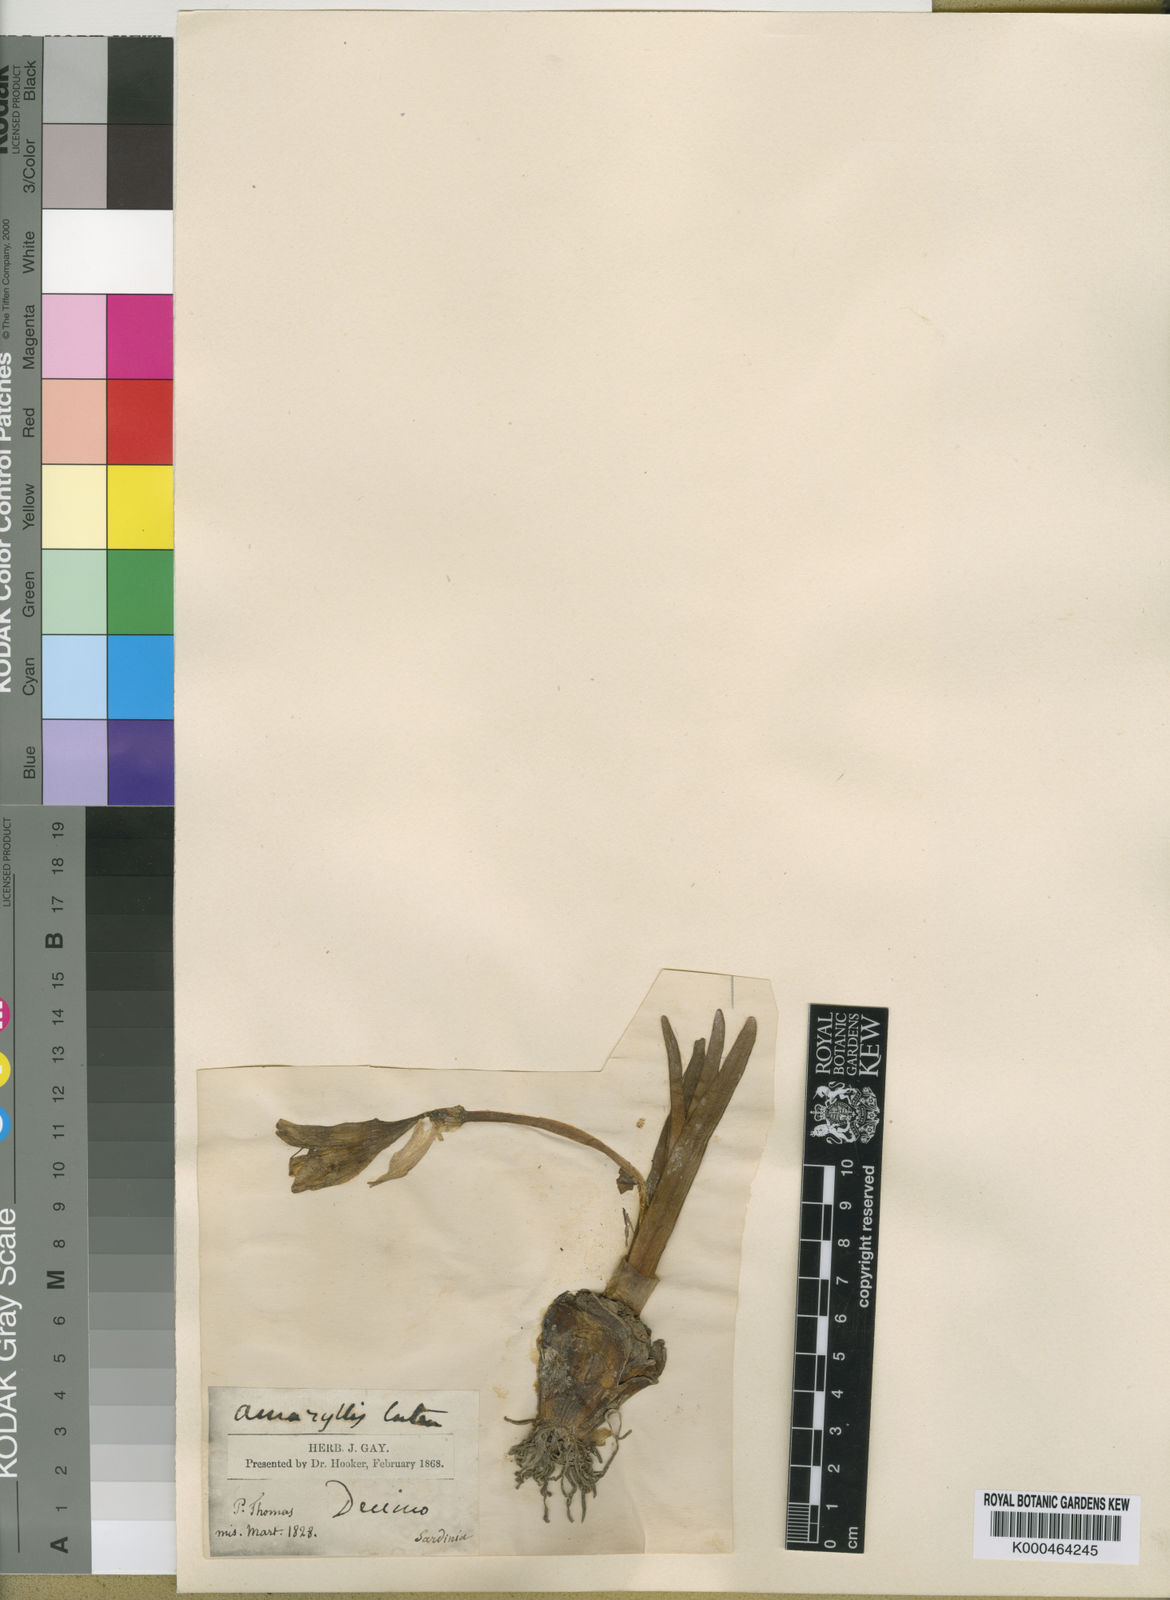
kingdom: Plantae
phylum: Tracheophyta
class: Liliopsida
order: Asparagales
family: Amaryllidaceae
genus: Sternbergia
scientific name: Sternbergia
